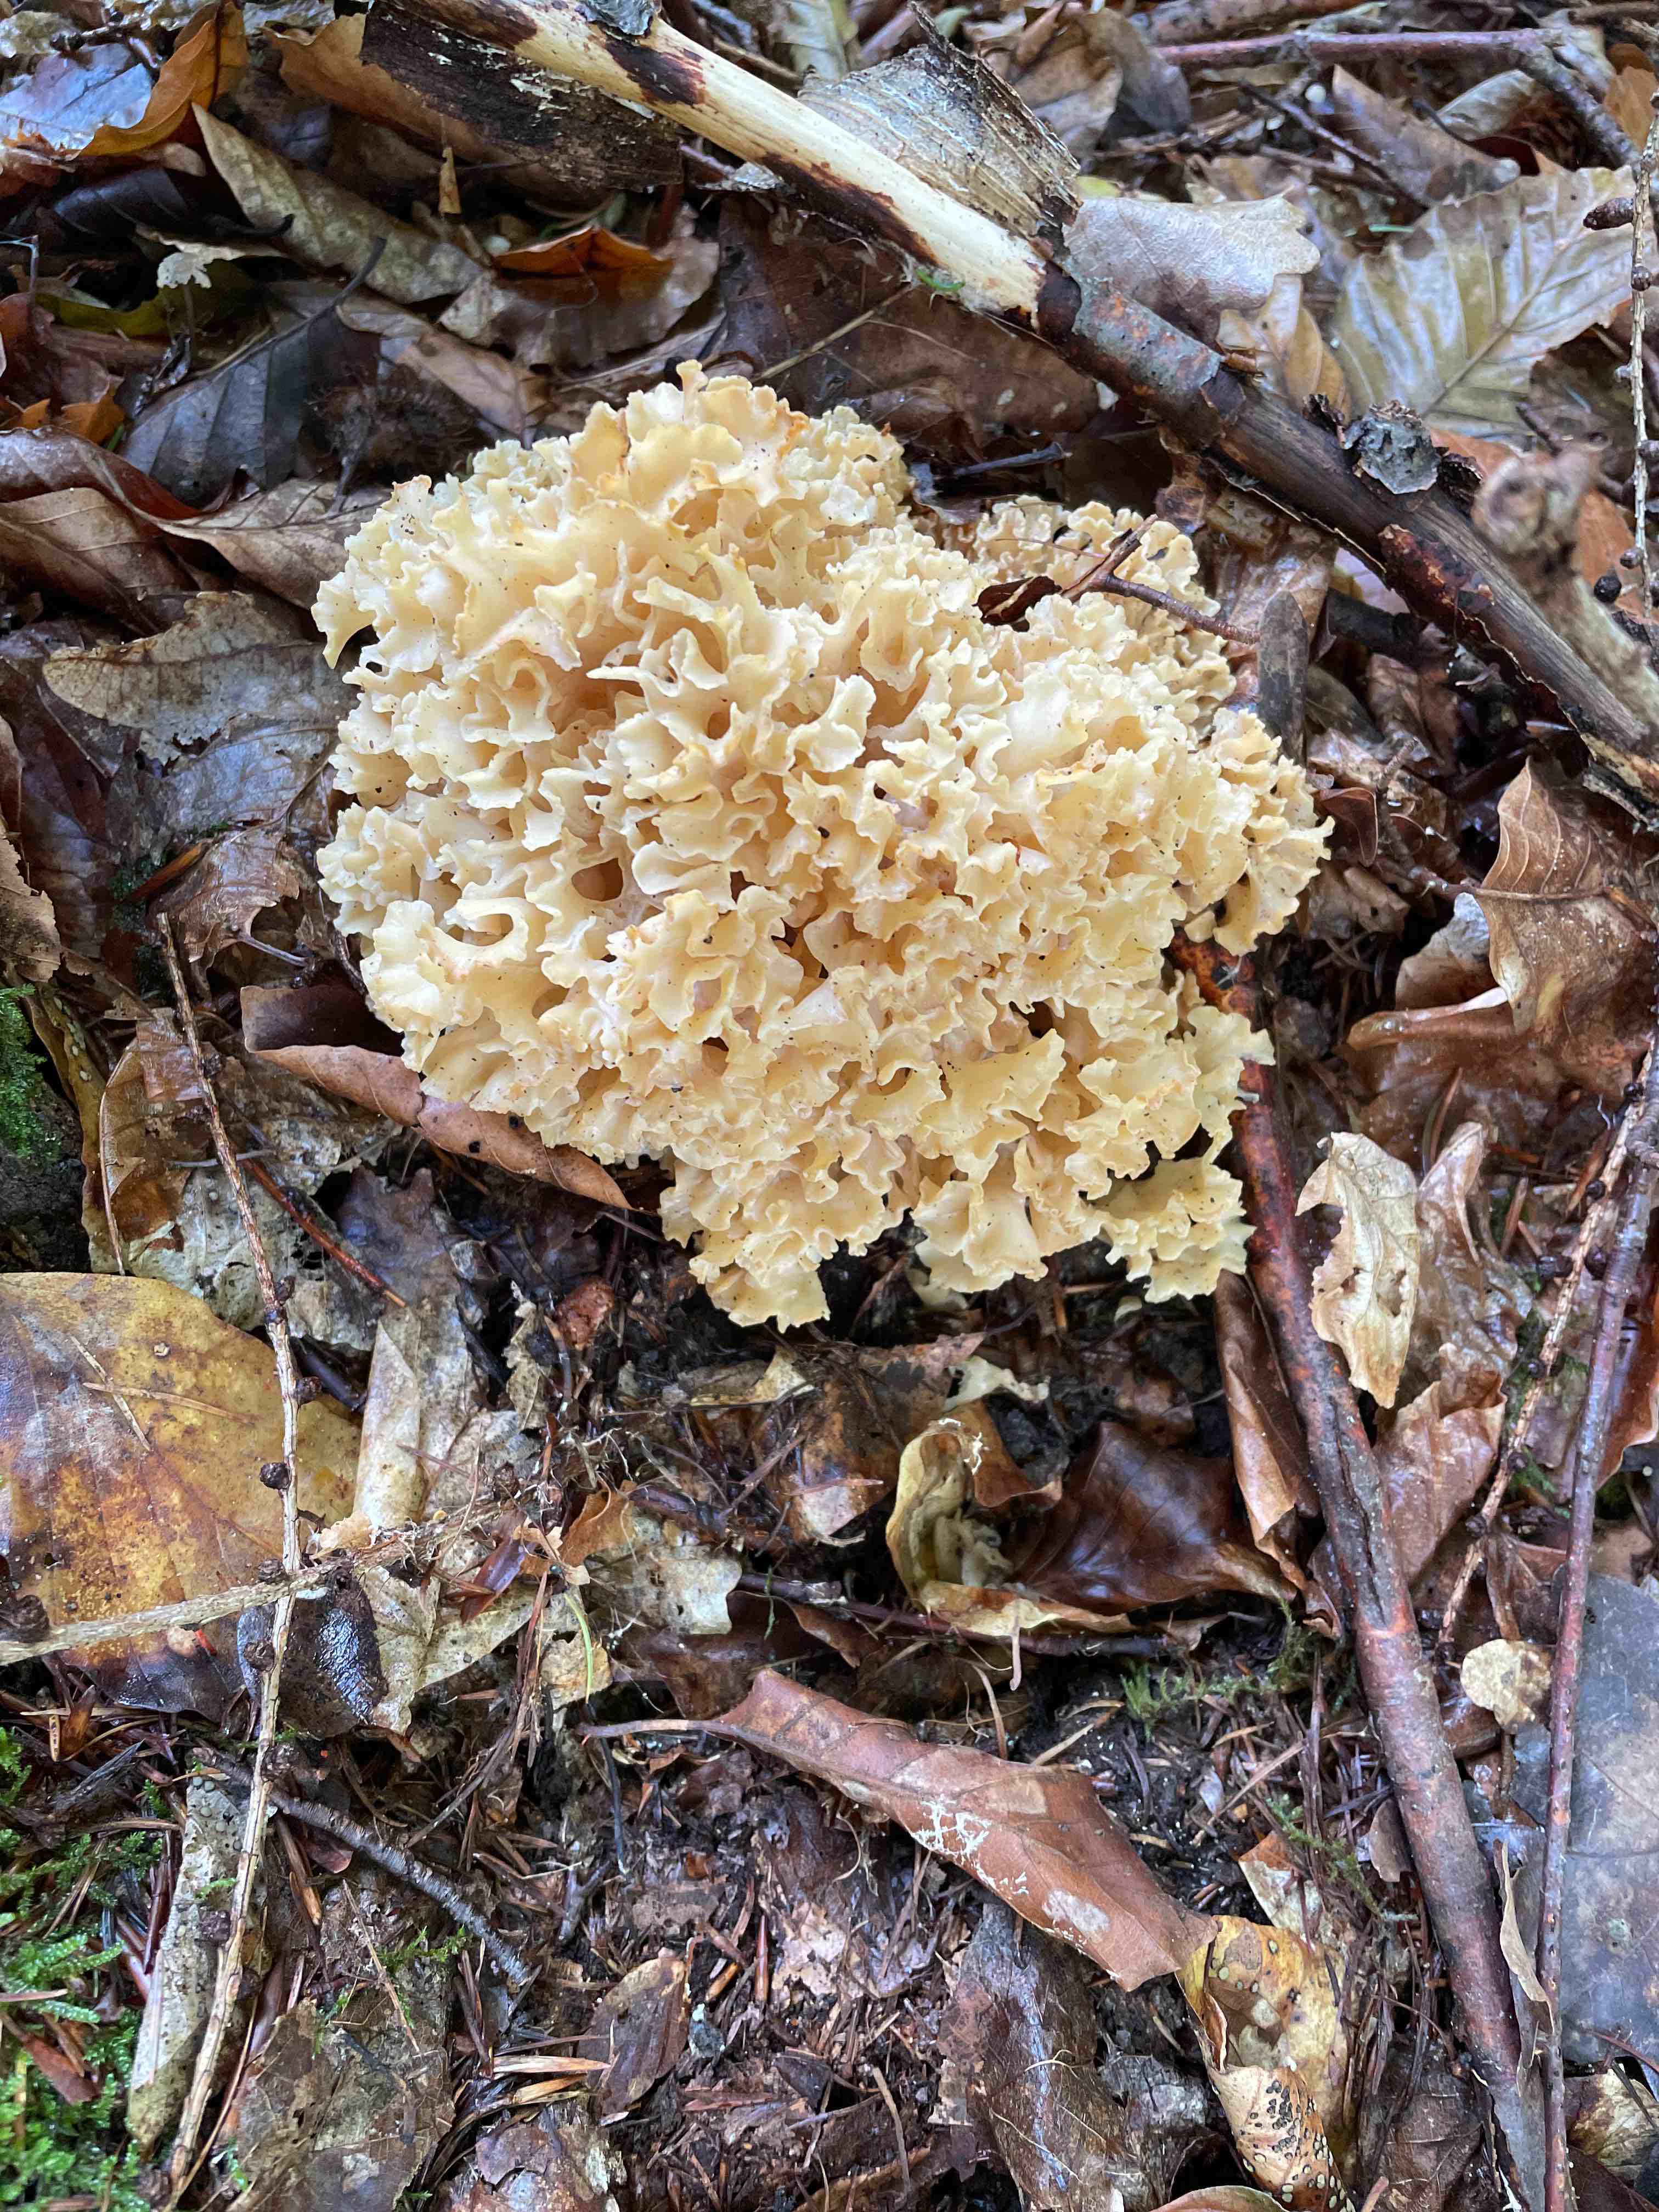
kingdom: Fungi
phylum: Basidiomycota
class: Agaricomycetes
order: Polyporales
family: Sparassidaceae
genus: Sparassis
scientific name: Sparassis crispa
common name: kruset blomkålssvamp
